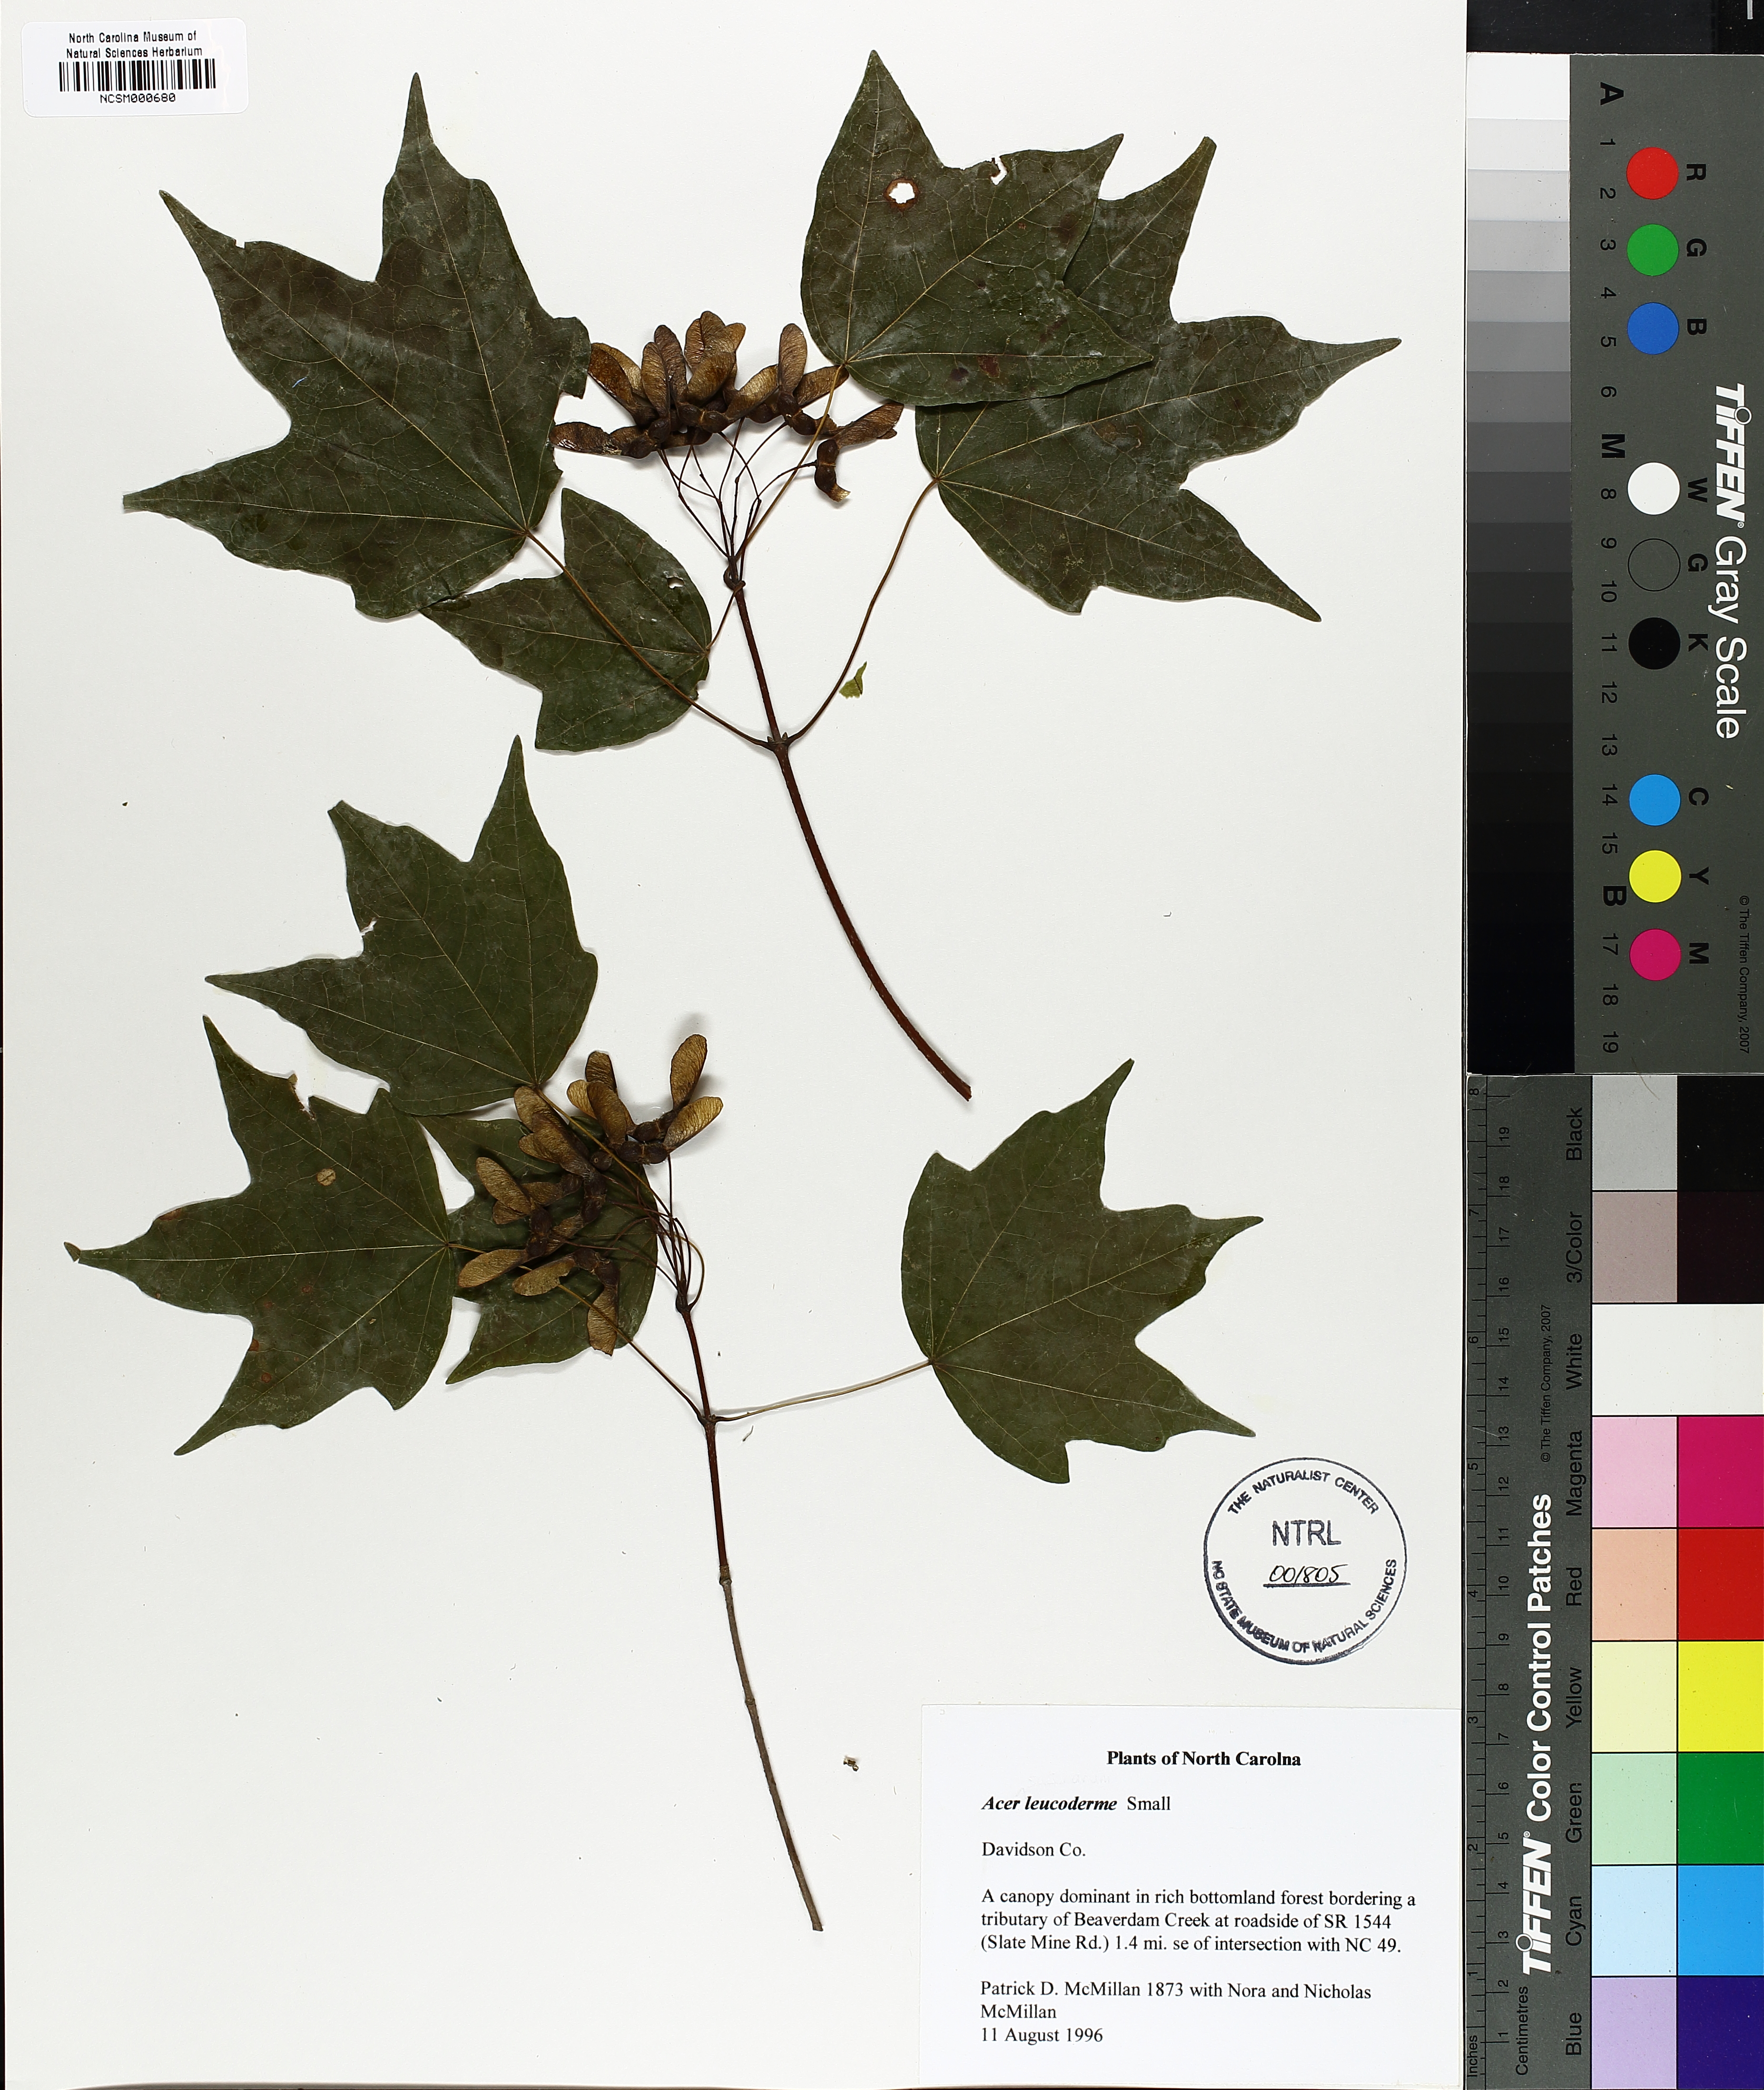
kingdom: Plantae
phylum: Tracheophyta
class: Magnoliopsida
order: Sapindales
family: Sapindaceae
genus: Acer
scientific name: Acer leucoderme
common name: Chalk maple
